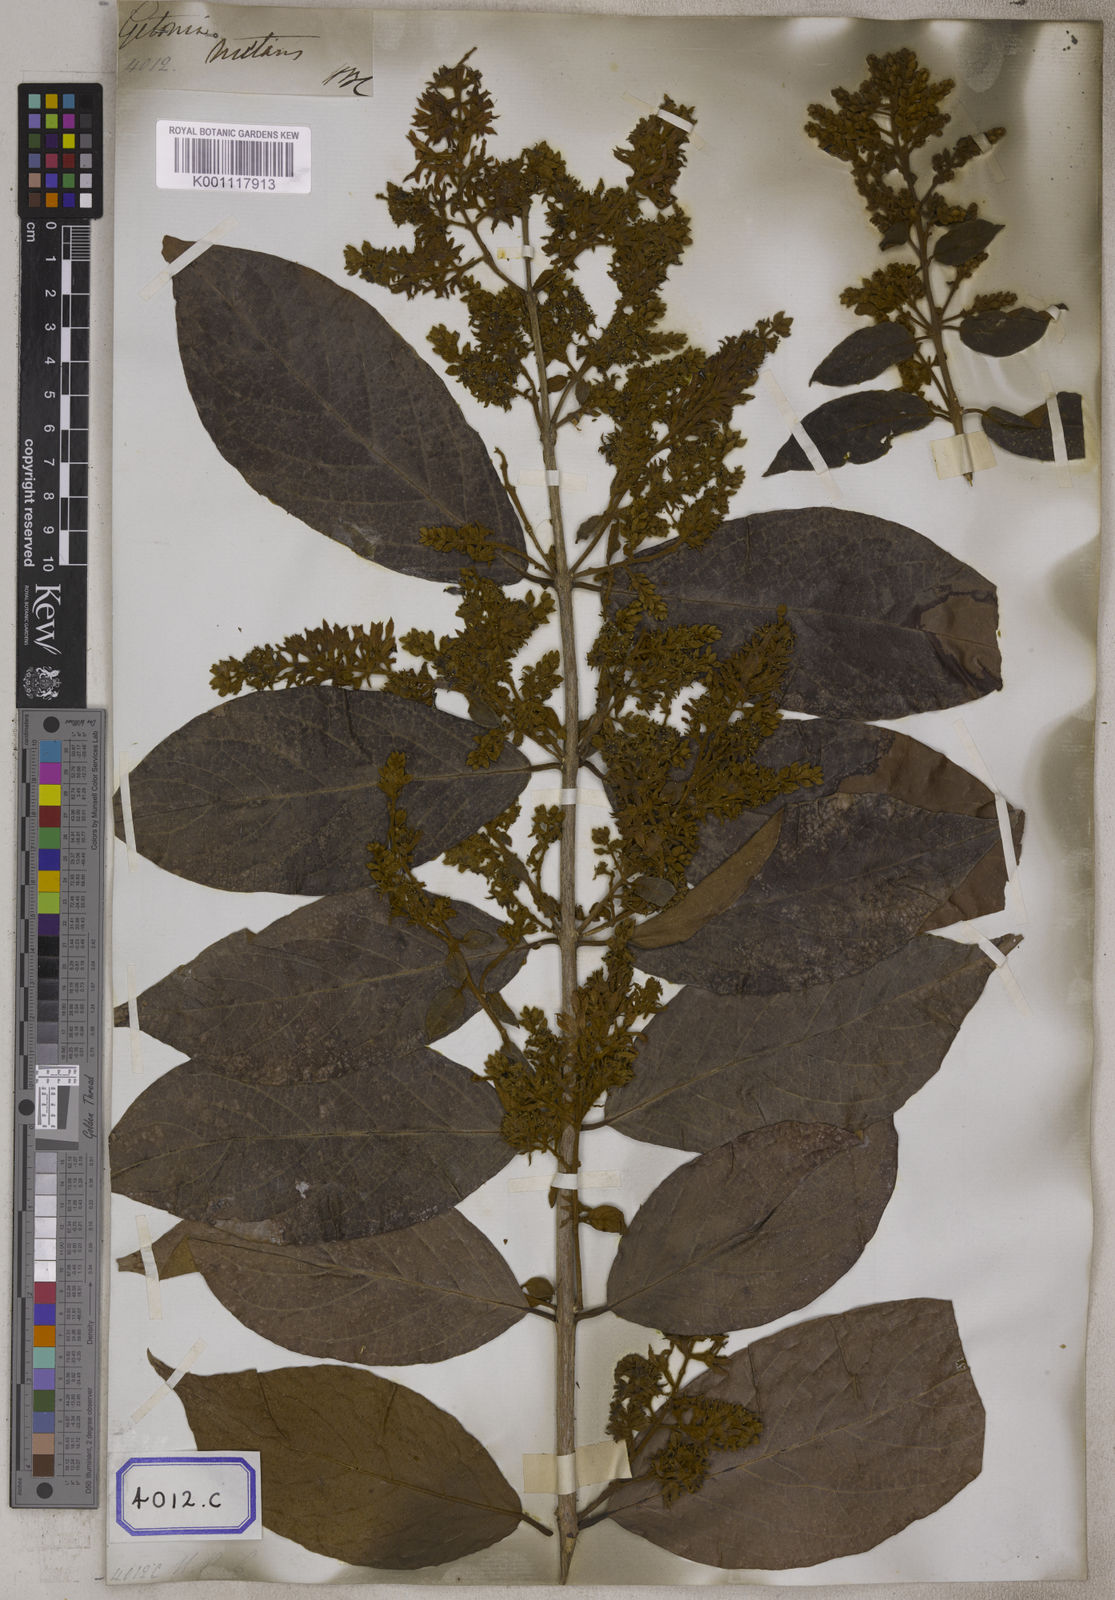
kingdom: Plantae
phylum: Tracheophyta
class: Magnoliopsida
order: Myrtales
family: Combretaceae
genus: Getonia
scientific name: Getonia floribunda
